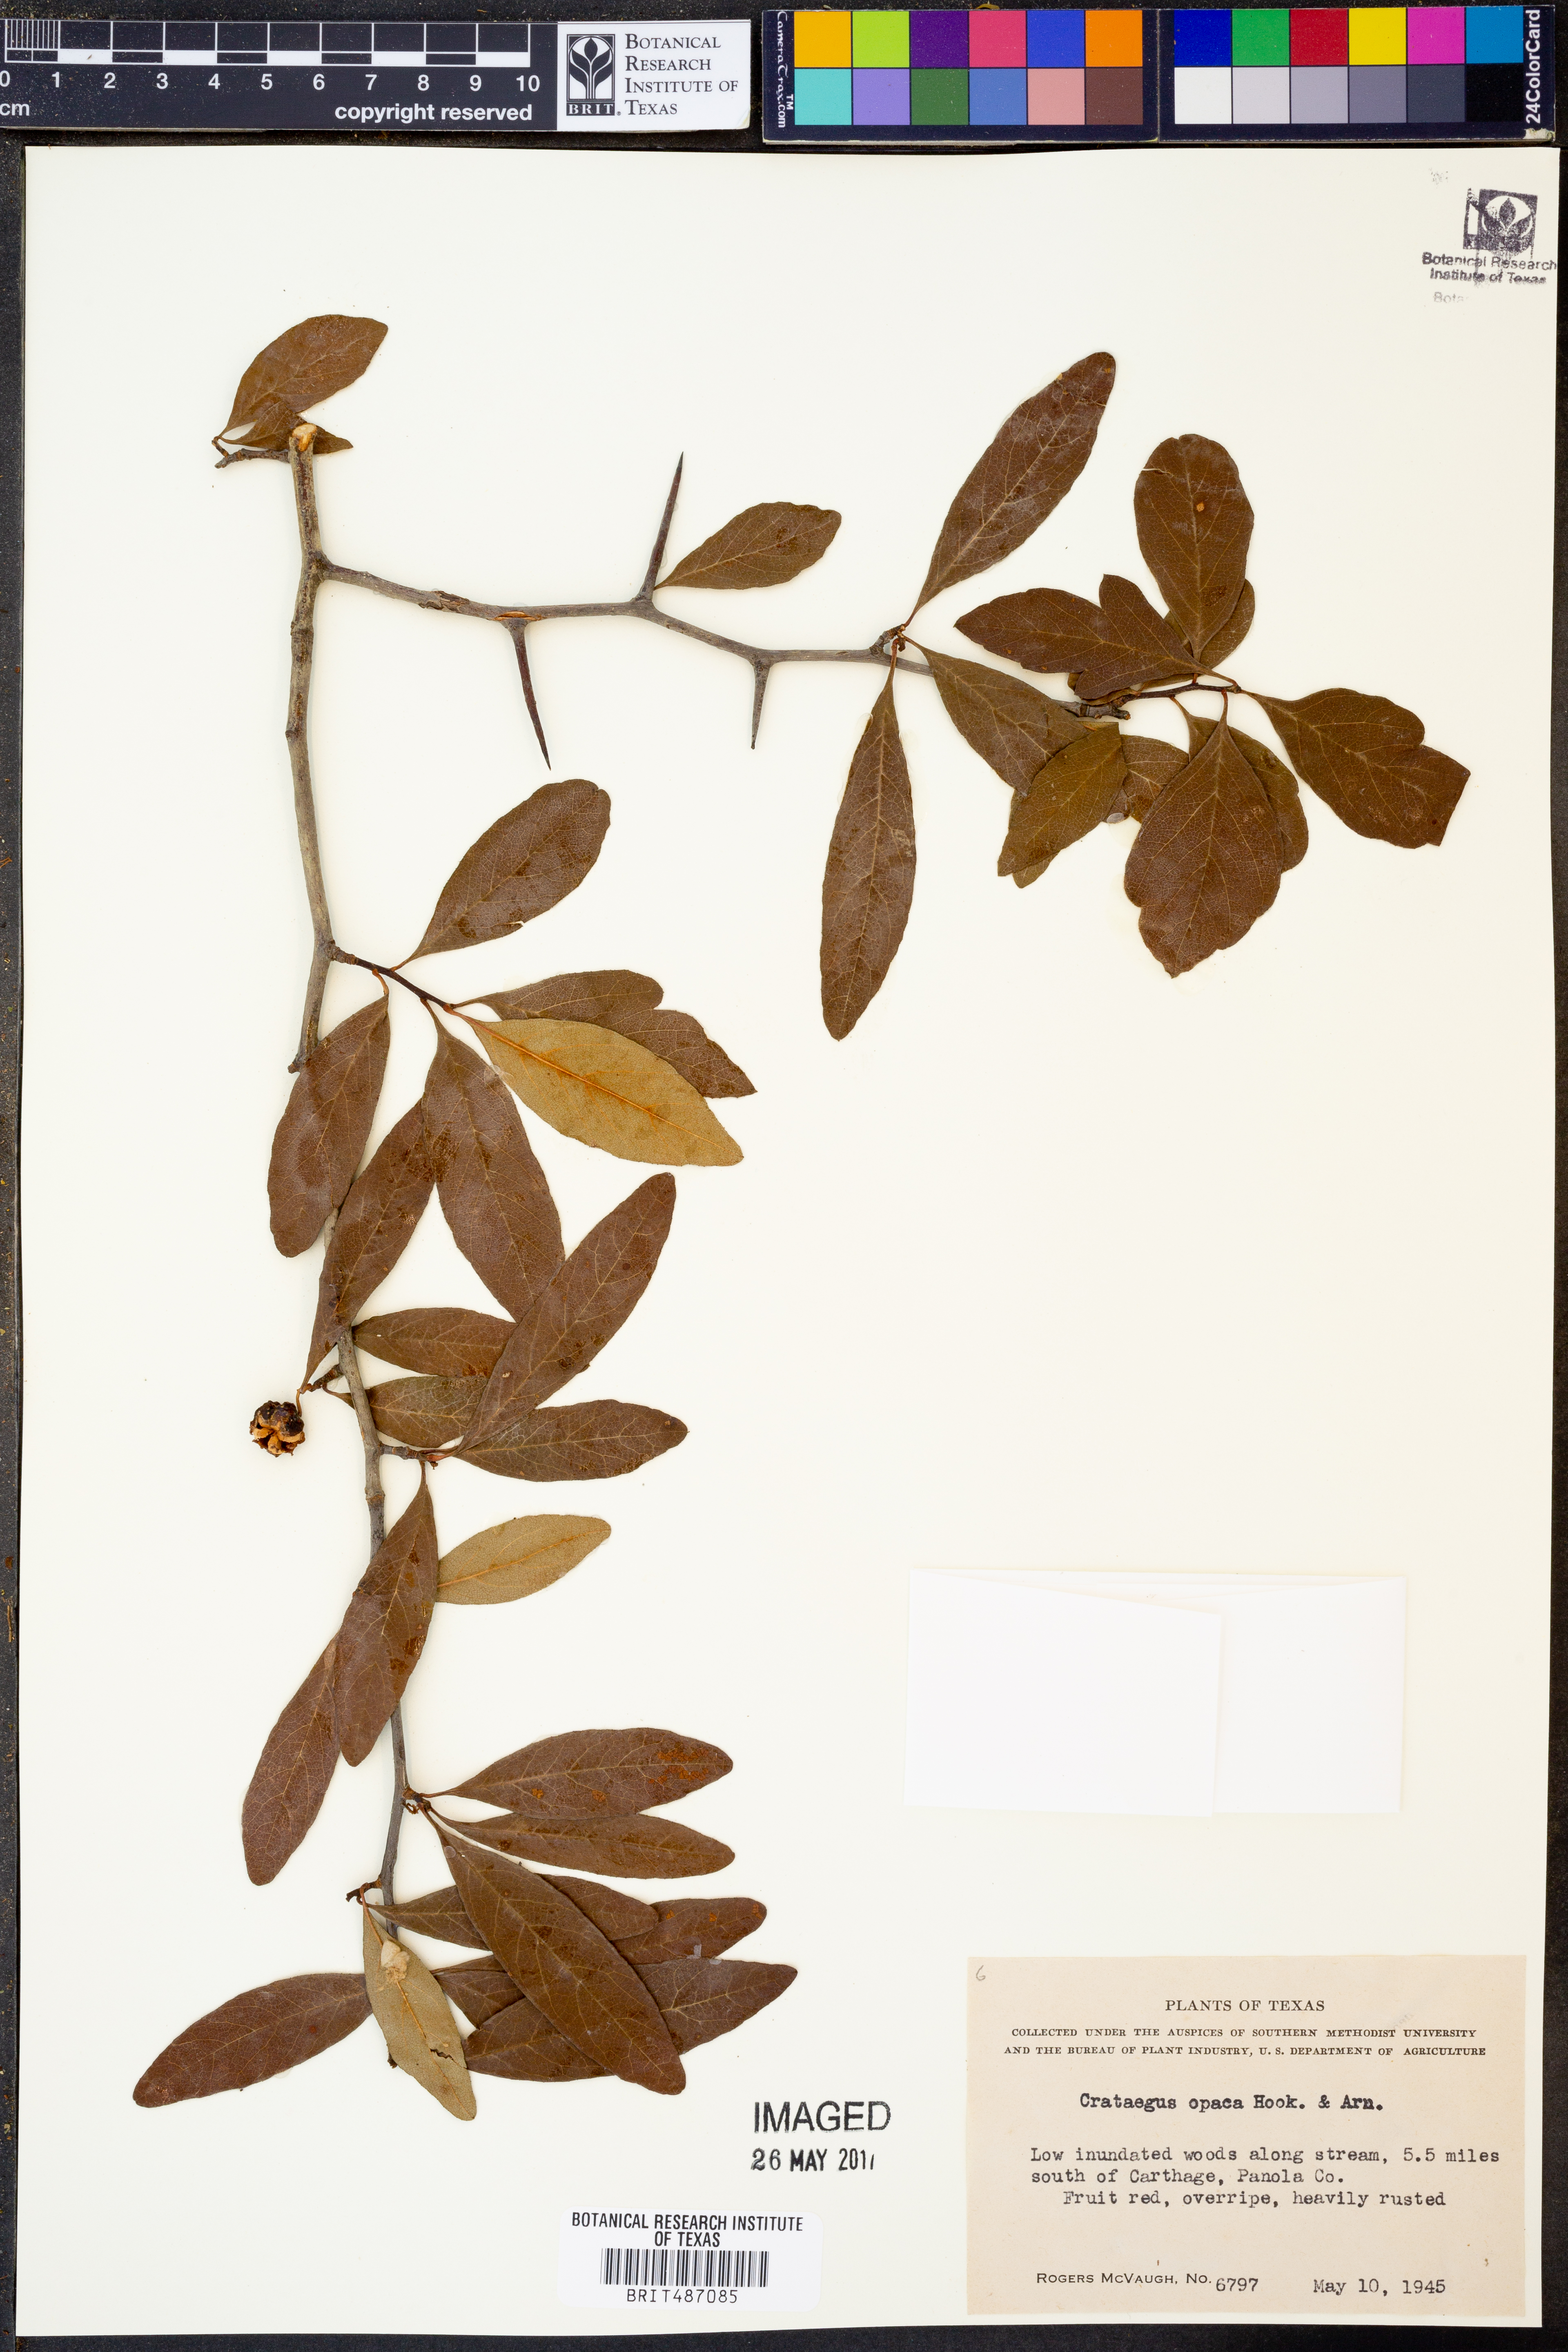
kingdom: Plantae
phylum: Tracheophyta
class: Magnoliopsida
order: Rosales
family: Rosaceae
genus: Crataegus
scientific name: Crataegus opaca
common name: Apple haw
